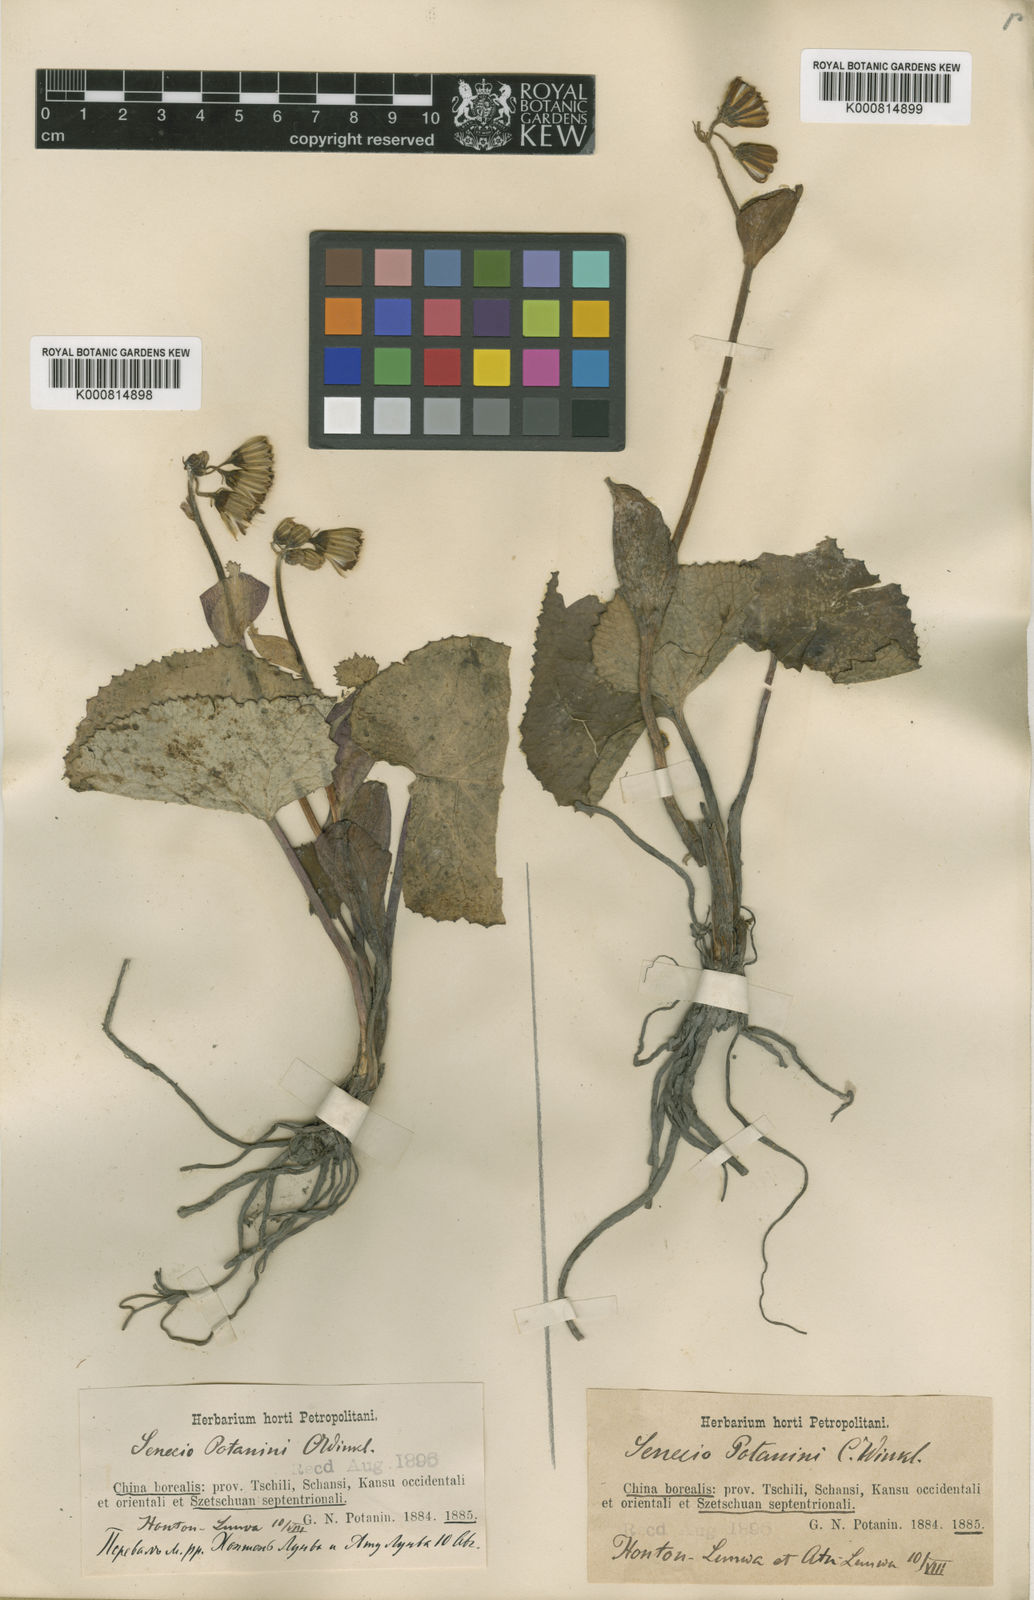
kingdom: Plantae
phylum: Tracheophyta
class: Magnoliopsida
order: Asterales
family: Asteraceae
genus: Ligularia
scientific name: Ligularia potaninii
